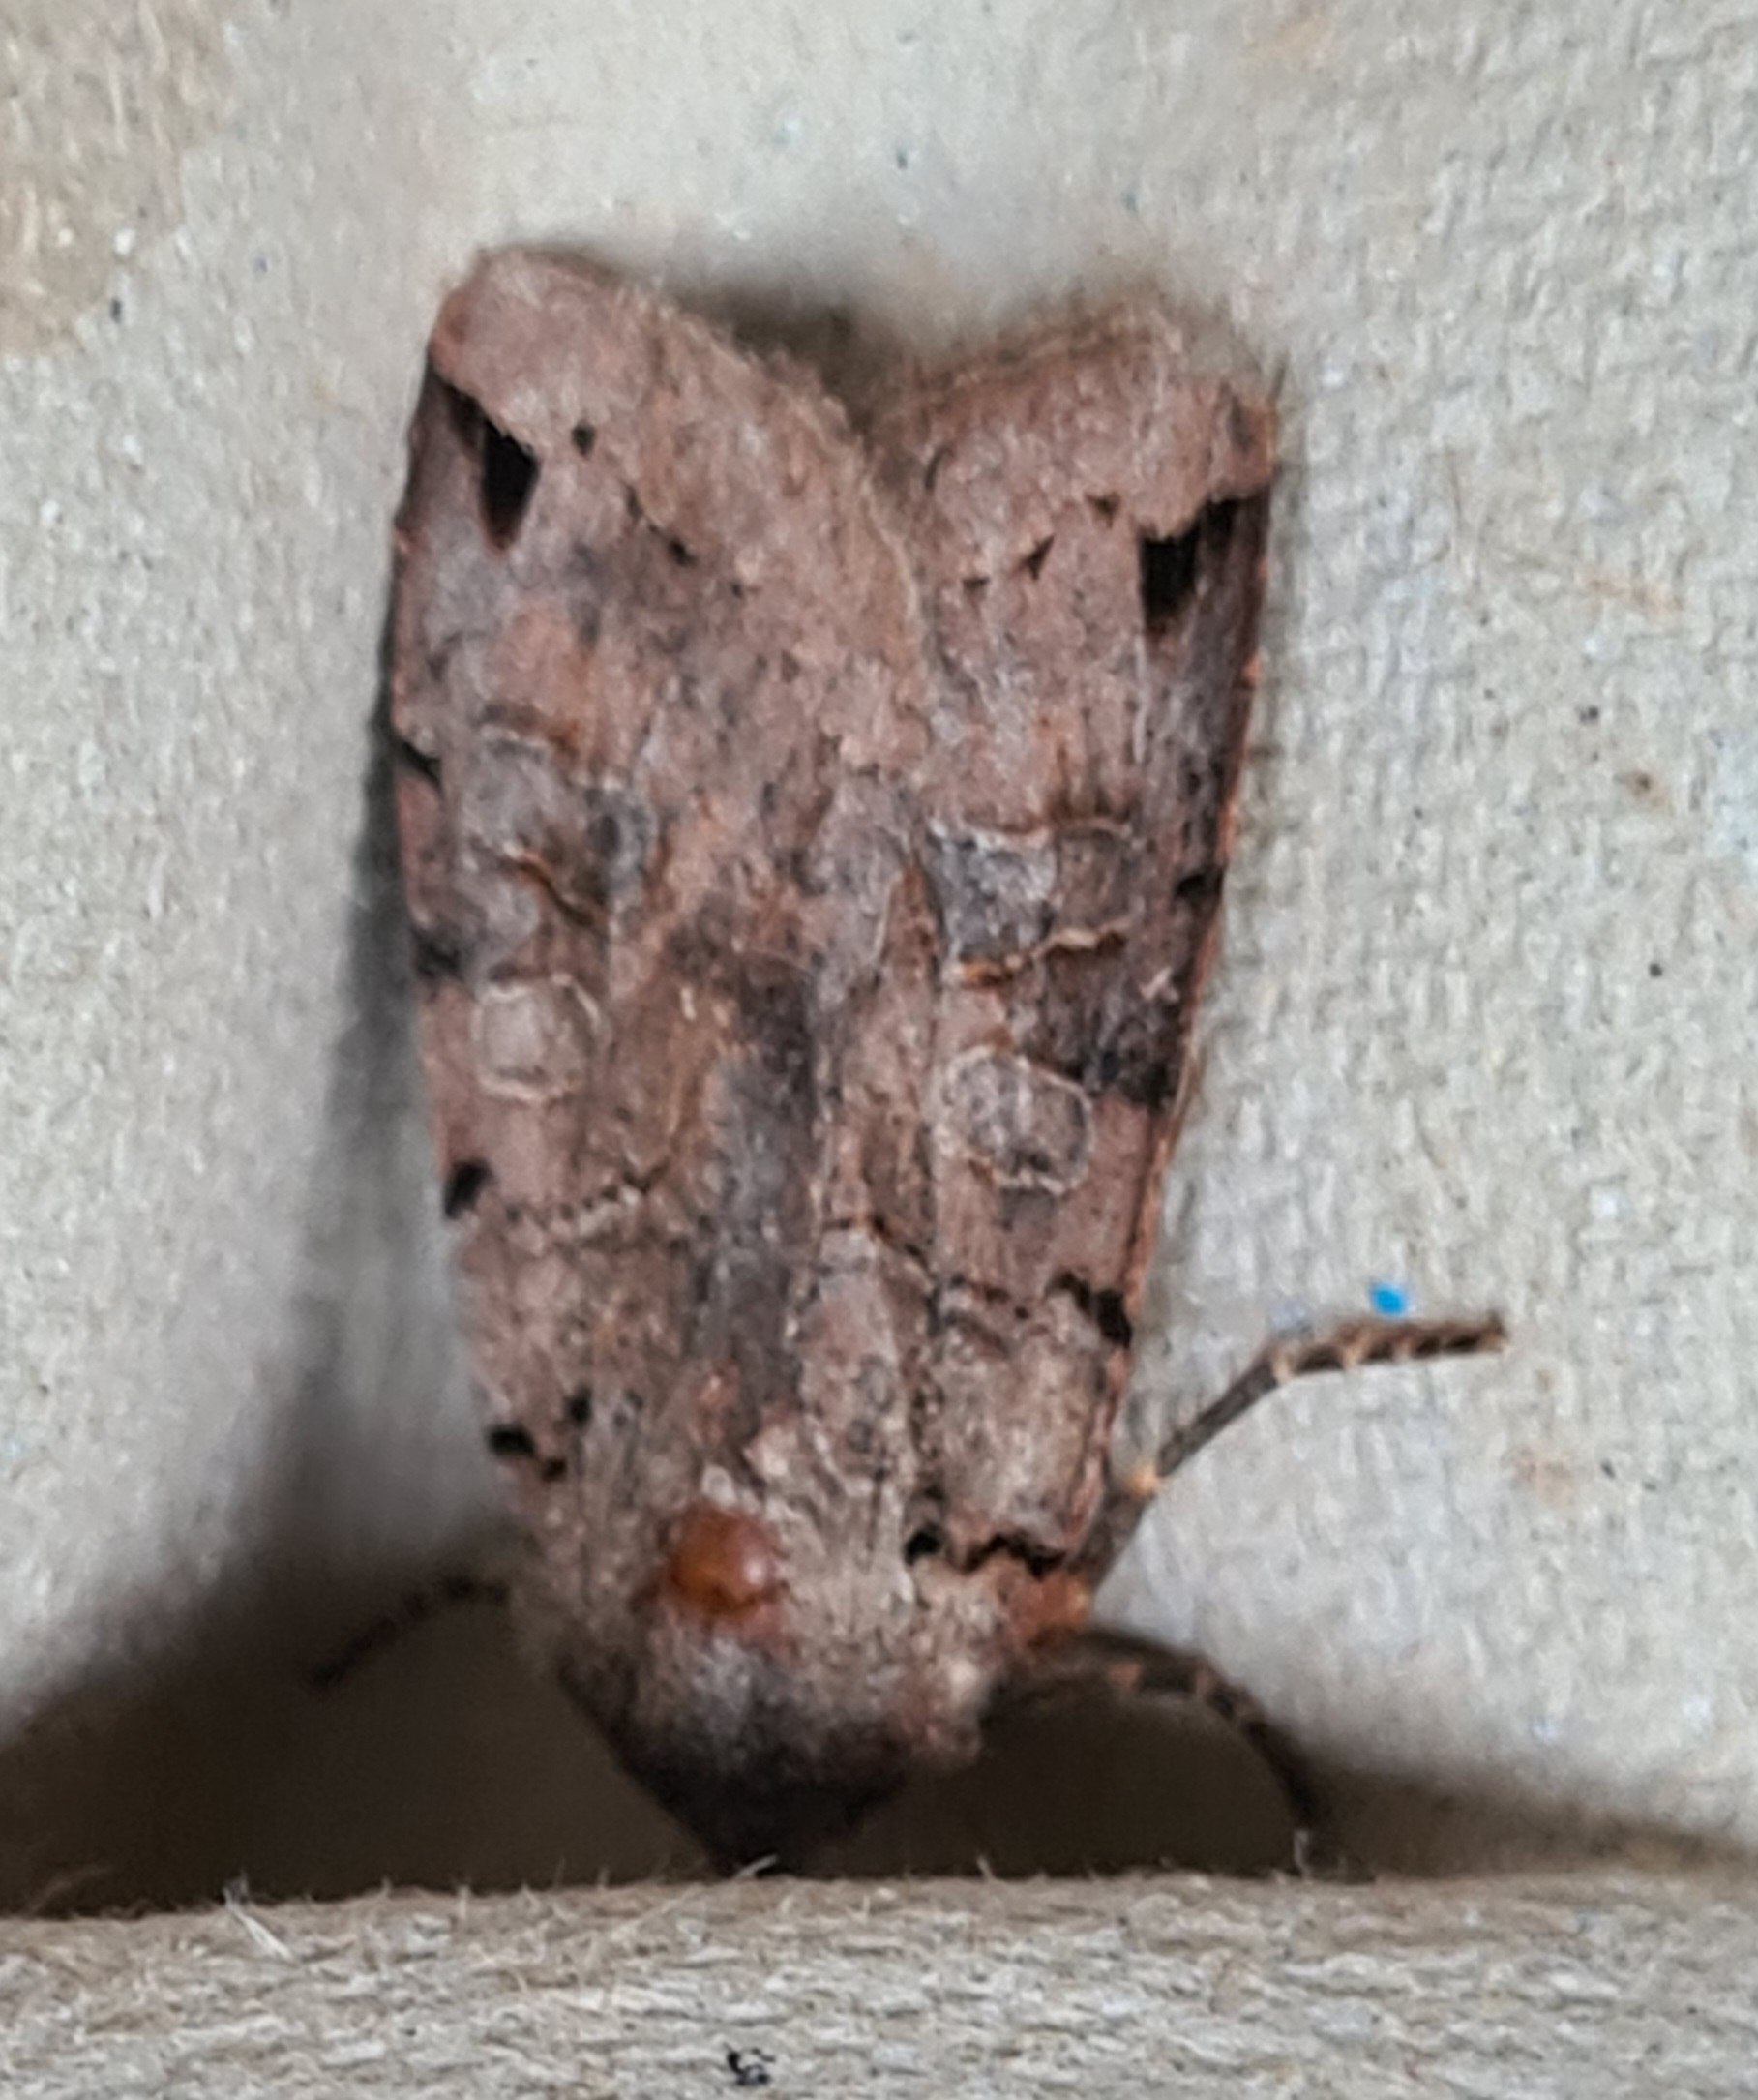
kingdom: Animalia
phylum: Arthropoda
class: Insecta
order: Lepidoptera
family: Noctuidae
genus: Agrochola
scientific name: Agrochola litura
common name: Kantplettet jordfarveugle
